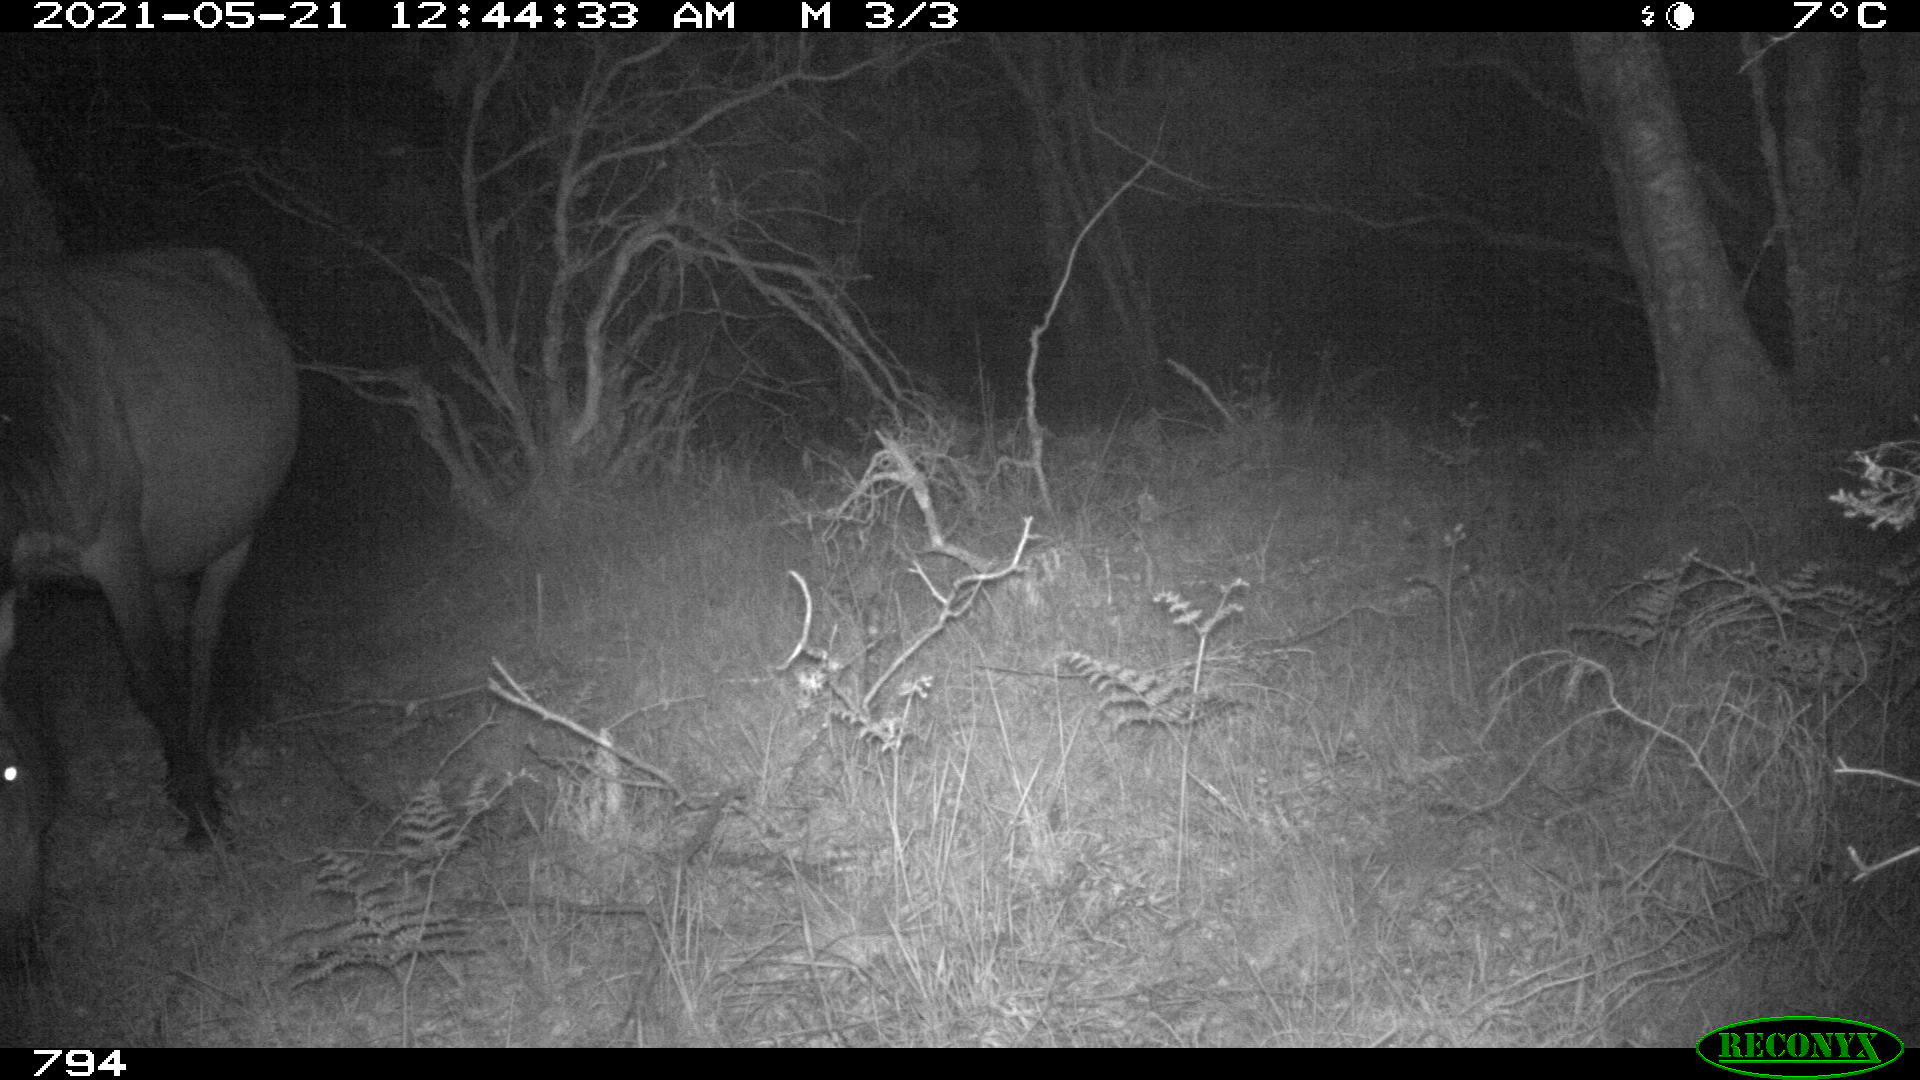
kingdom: Animalia
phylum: Chordata
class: Mammalia
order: Perissodactyla
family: Equidae
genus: Equus
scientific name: Equus caballus
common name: Horse
